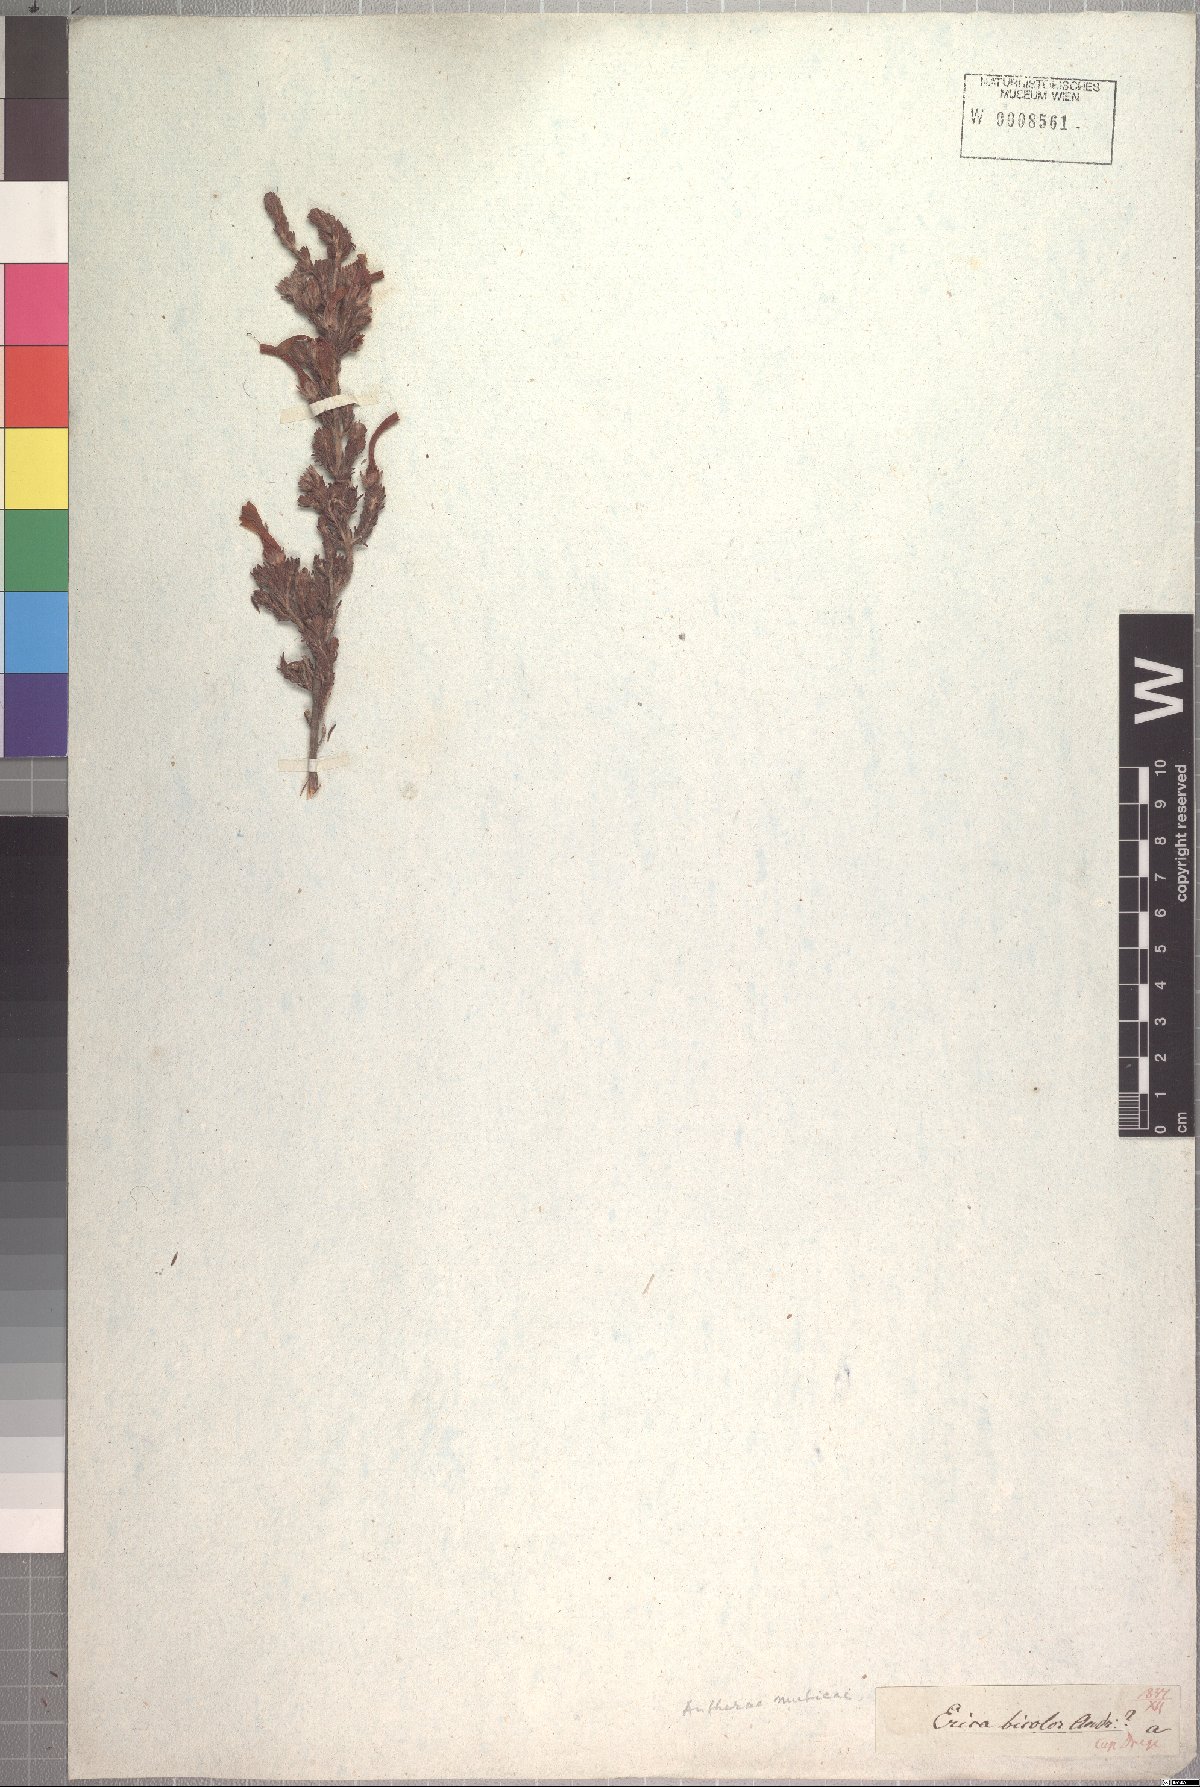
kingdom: Plantae
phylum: Tracheophyta
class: Magnoliopsida
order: Ericales
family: Ericaceae
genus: Erica
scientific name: Erica unicolor
